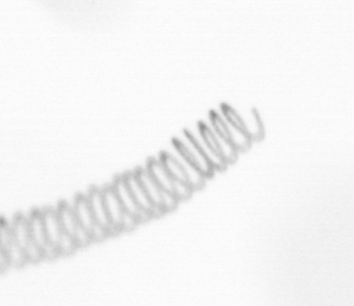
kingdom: Chromista
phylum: Ochrophyta
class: Bacillariophyceae
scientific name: Bacillariophyceae
